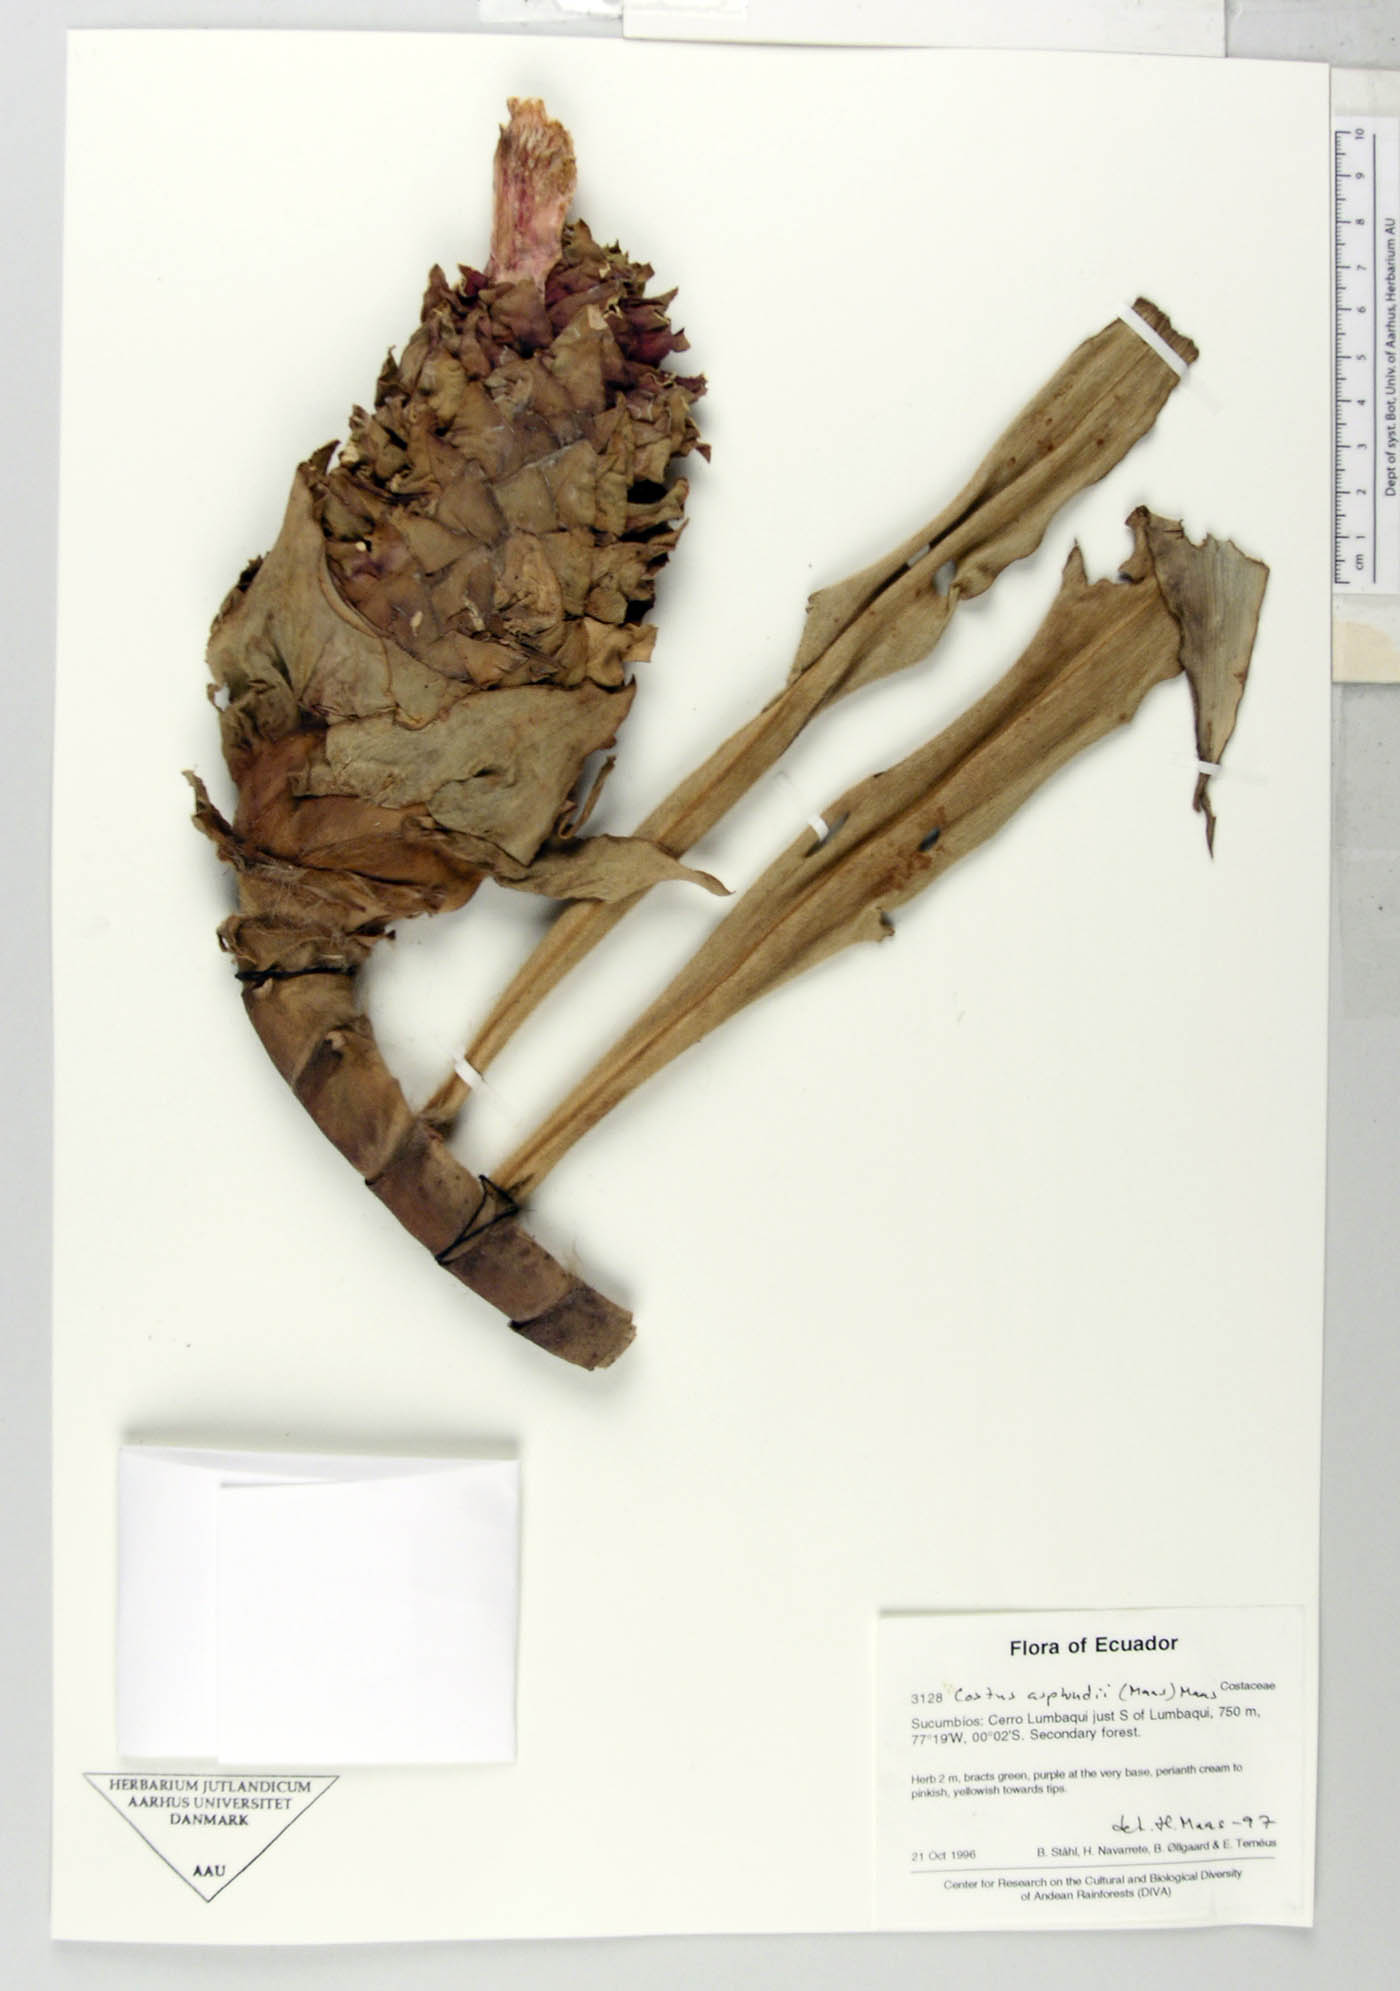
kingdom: Plantae
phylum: Tracheophyta
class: Liliopsida
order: Zingiberales
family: Costaceae
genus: Costus
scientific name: Costus asplundii
